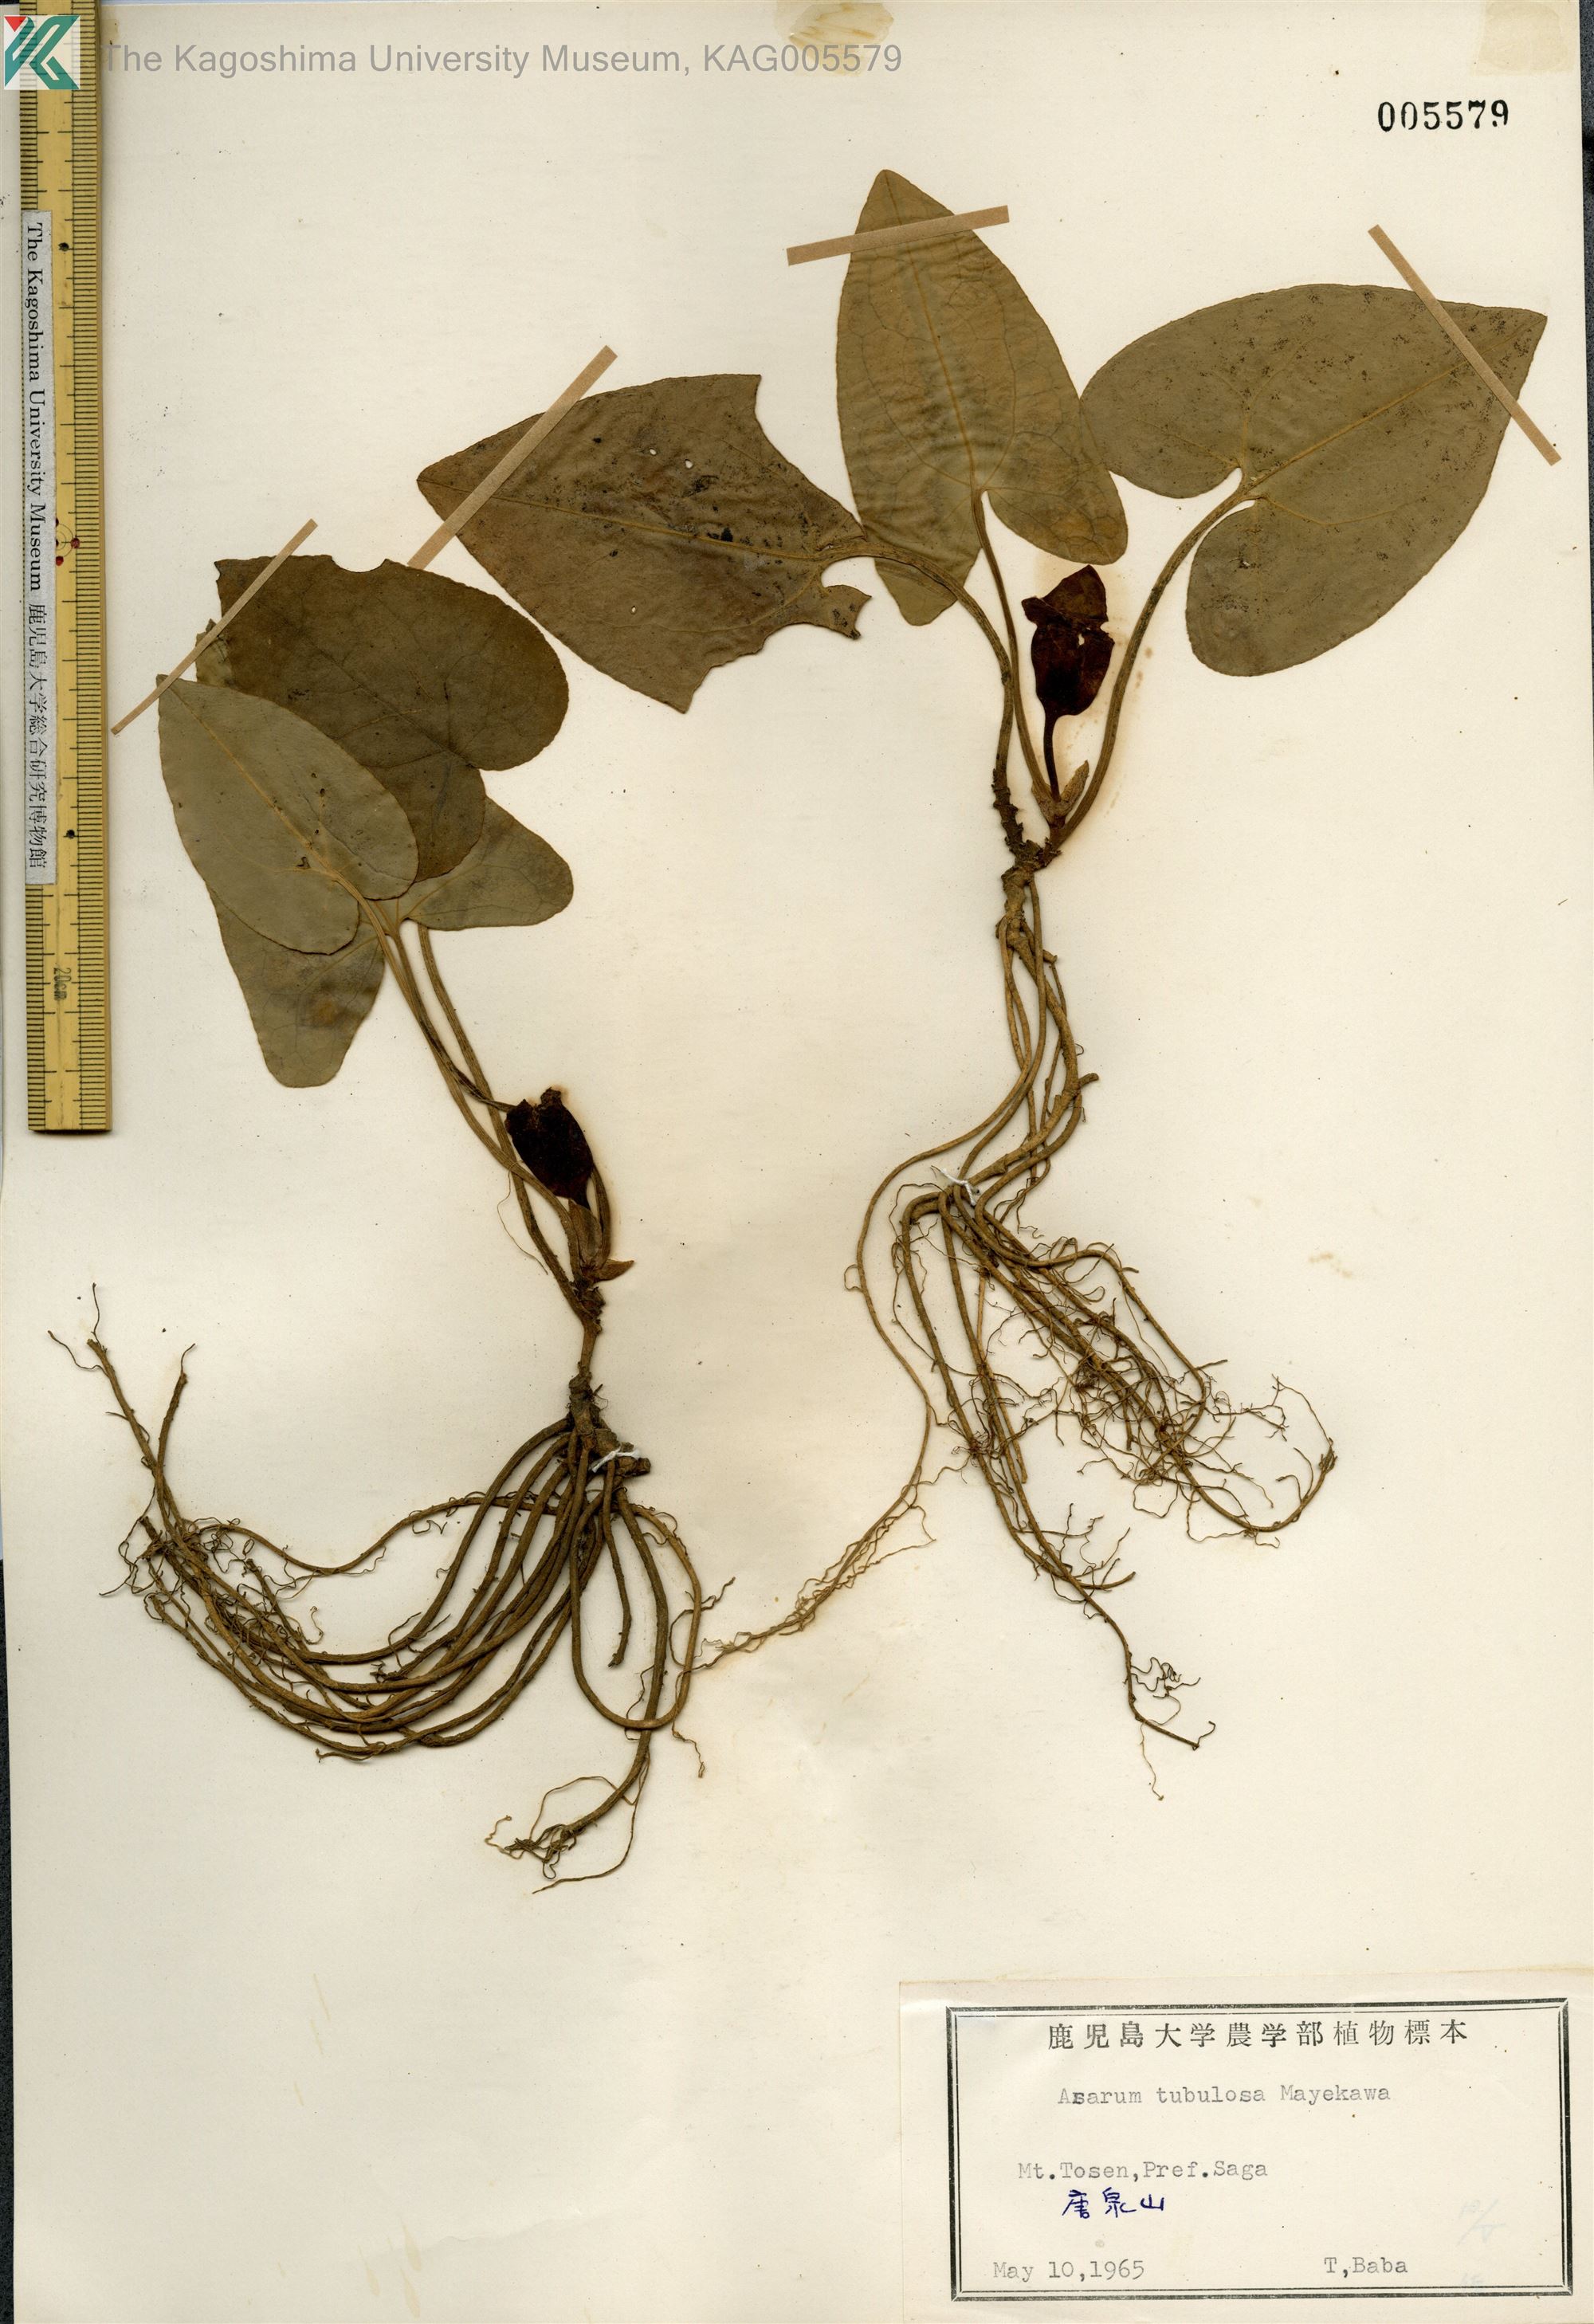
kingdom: Plantae
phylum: Tracheophyta
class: Magnoliopsida
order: Piperales
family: Aristolochiaceae
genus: Asarum
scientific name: Asarum kiusianum
